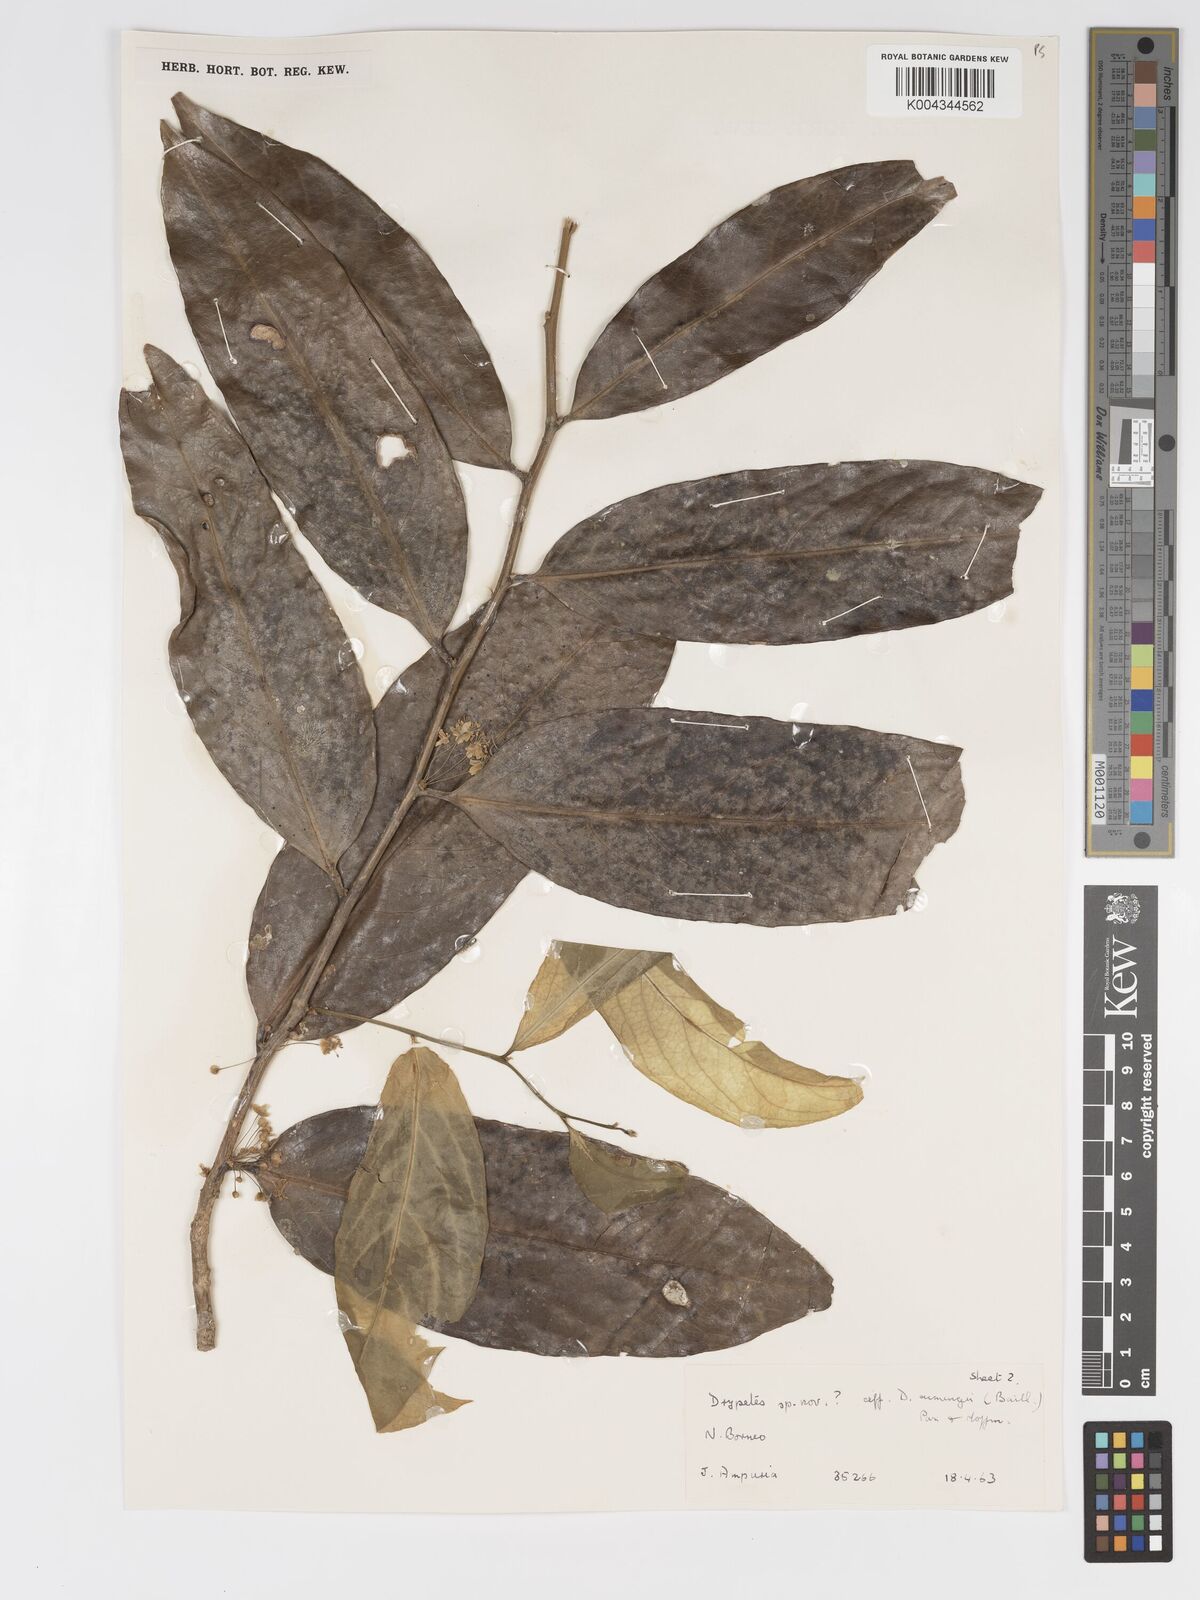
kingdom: Plantae
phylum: Tracheophyta
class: Magnoliopsida
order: Malpighiales
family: Putranjivaceae
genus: Drypetes
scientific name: Drypetes neglecta
